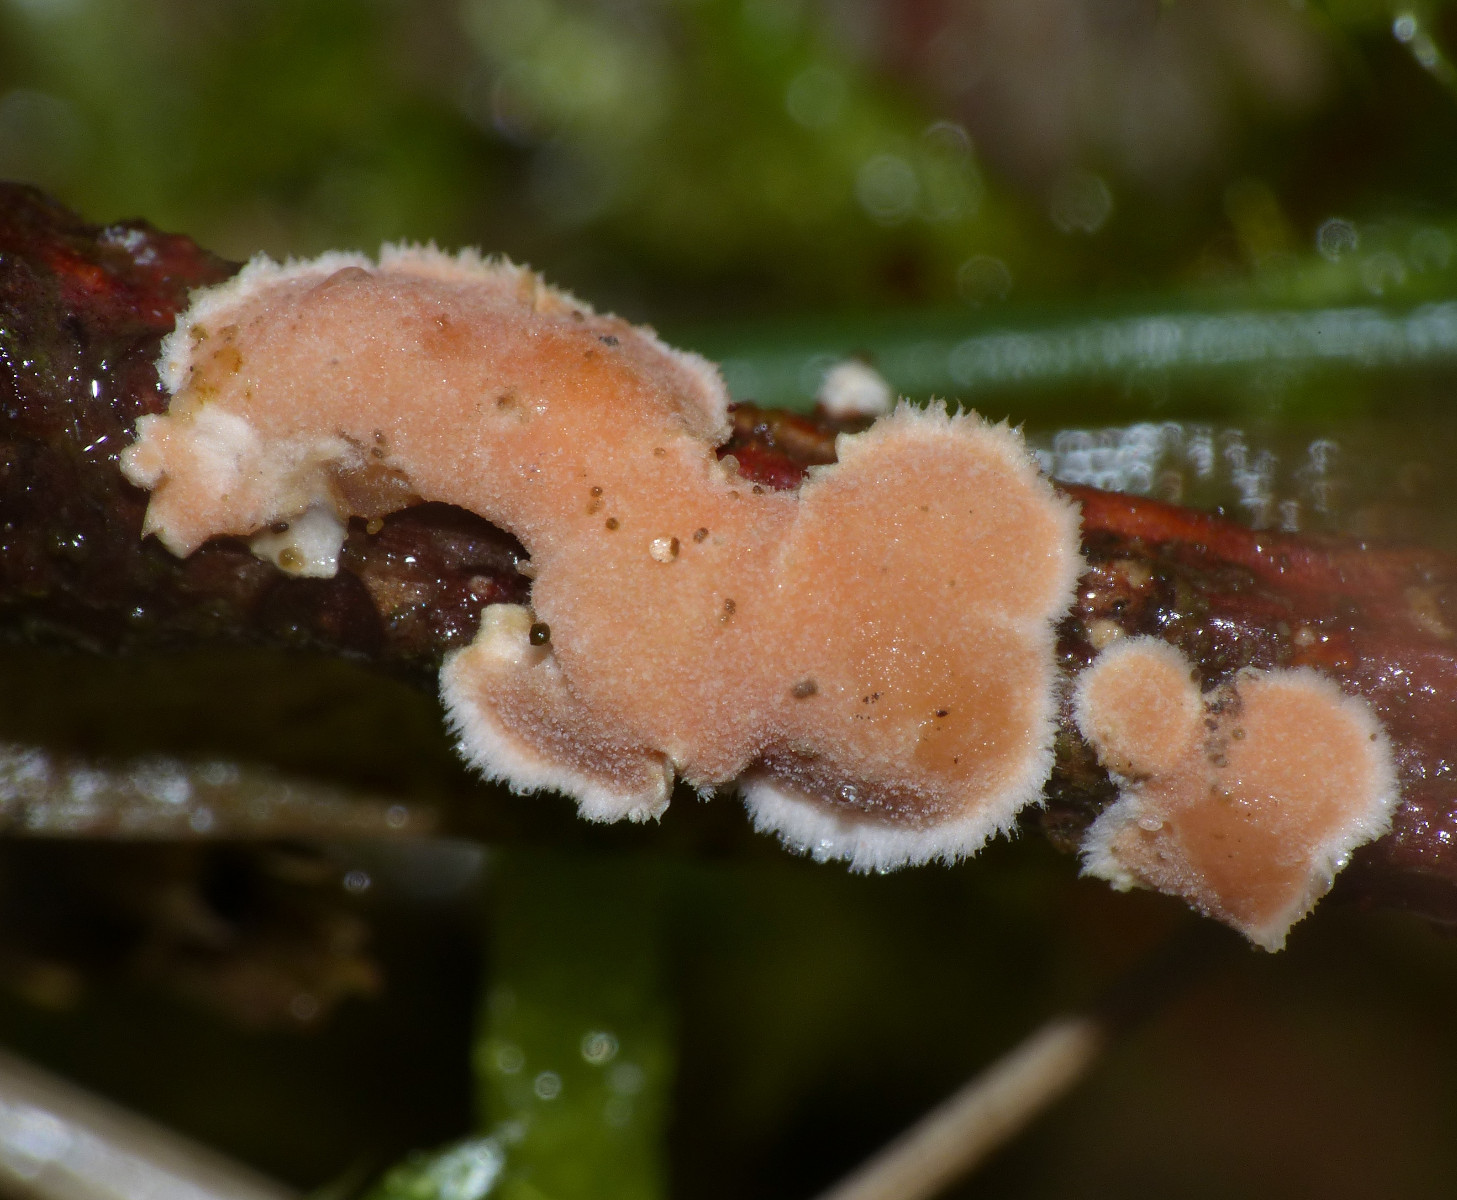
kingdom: Fungi
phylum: Basidiomycota
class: Agaricomycetes
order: Russulales
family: Stereaceae
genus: Aleurodiscus
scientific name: Aleurodiscus amorphus
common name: orange skiveskorpe
